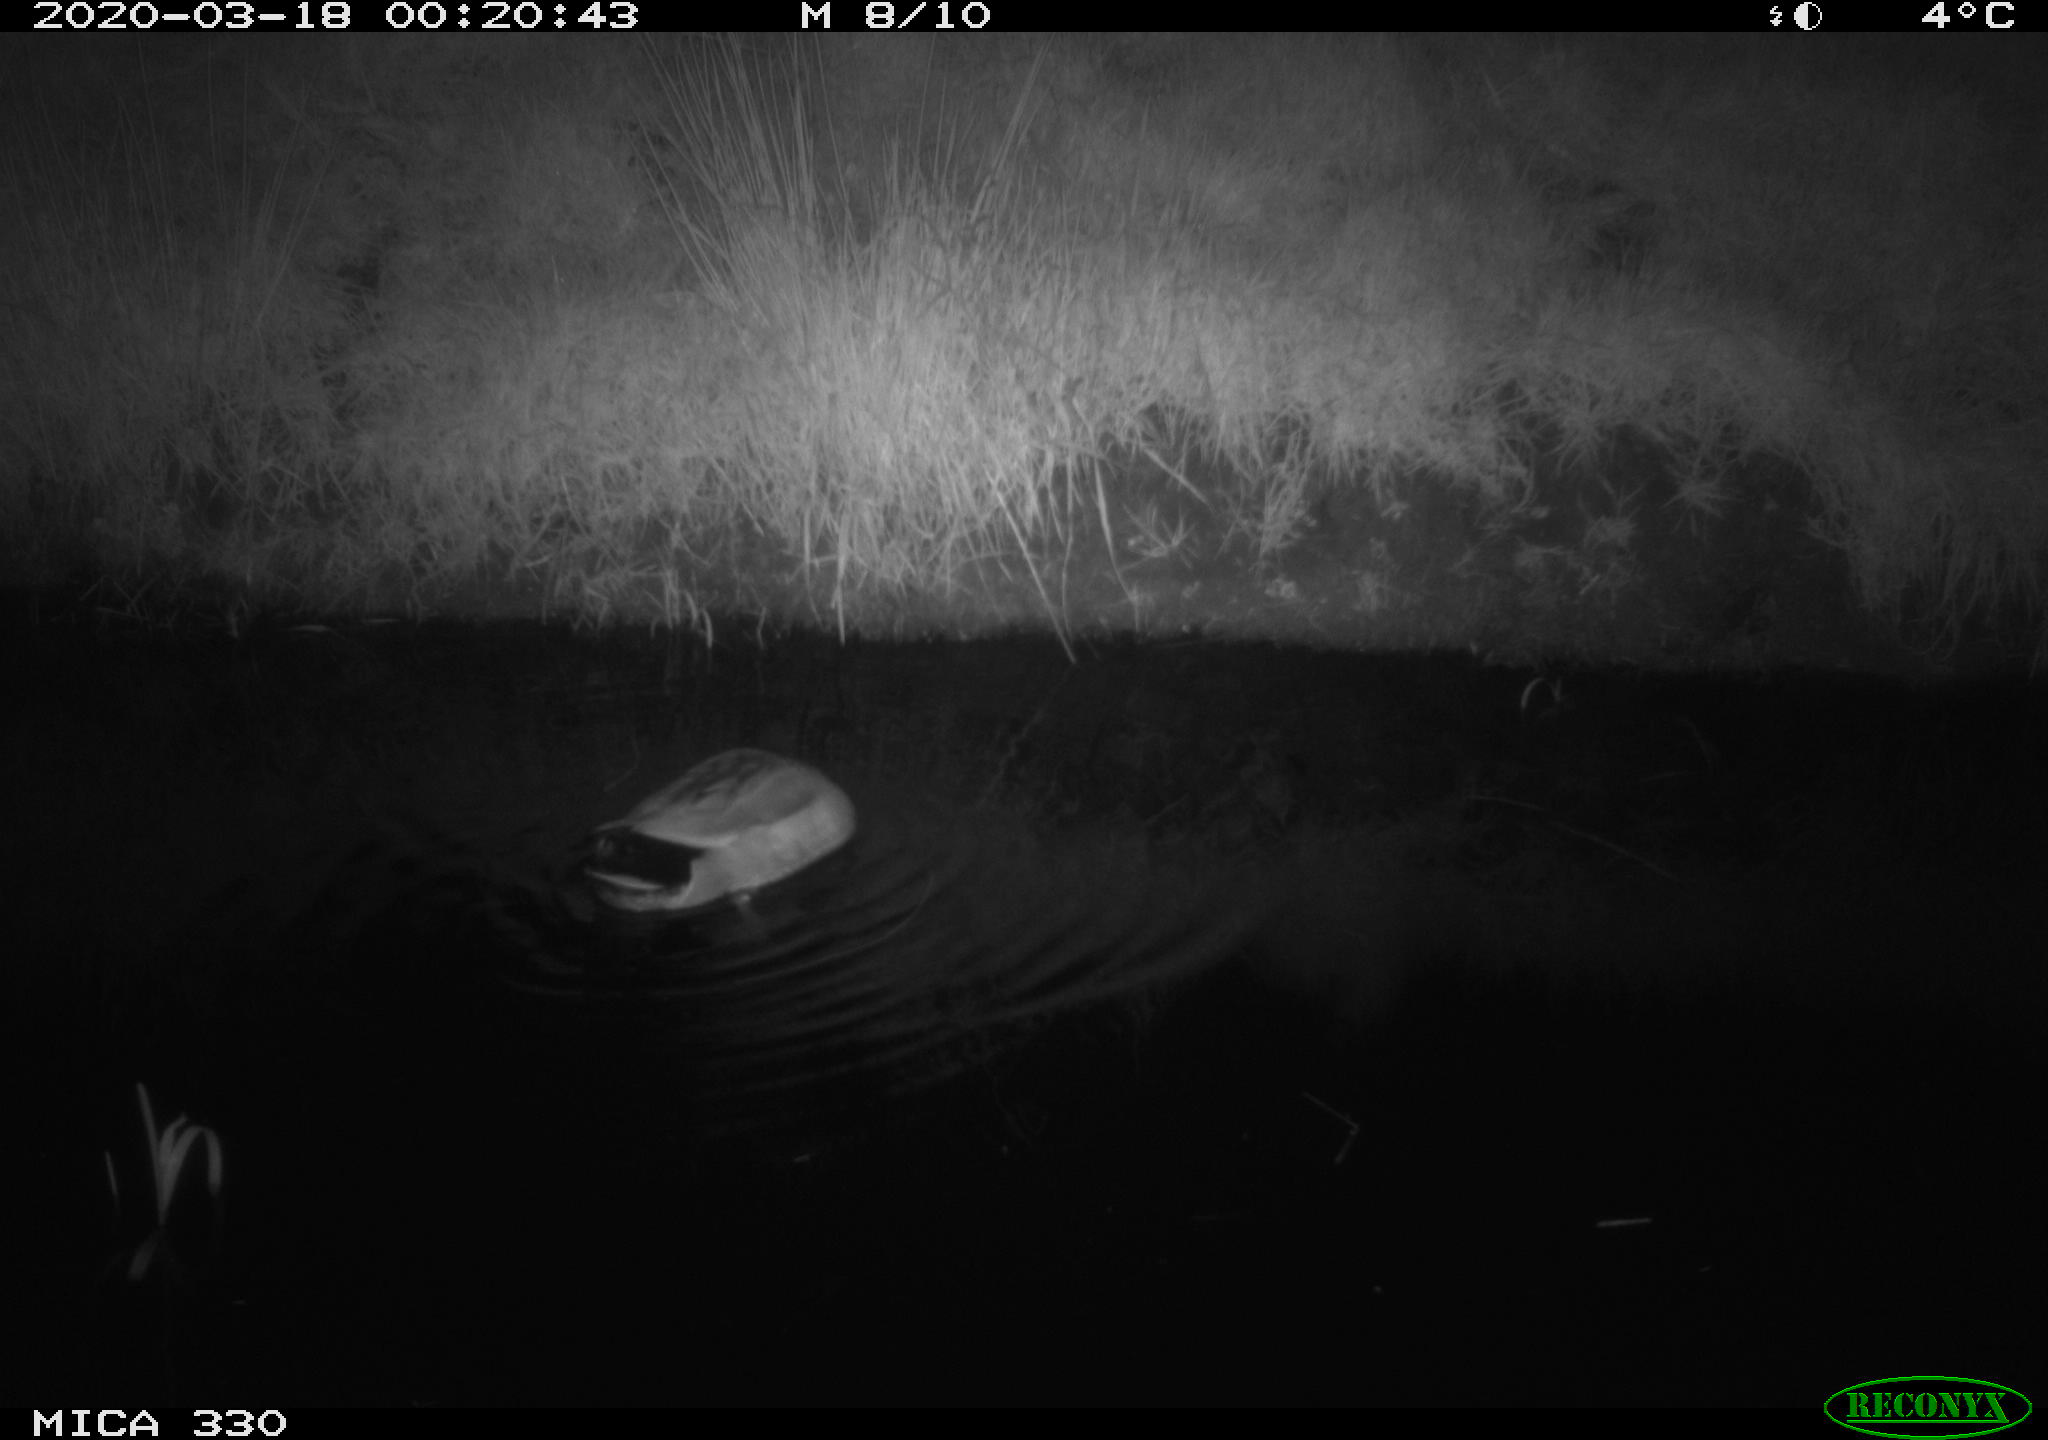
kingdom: Animalia
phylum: Chordata
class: Aves
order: Anseriformes
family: Anatidae
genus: Anas
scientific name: Anas platyrhynchos
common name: Mallard
